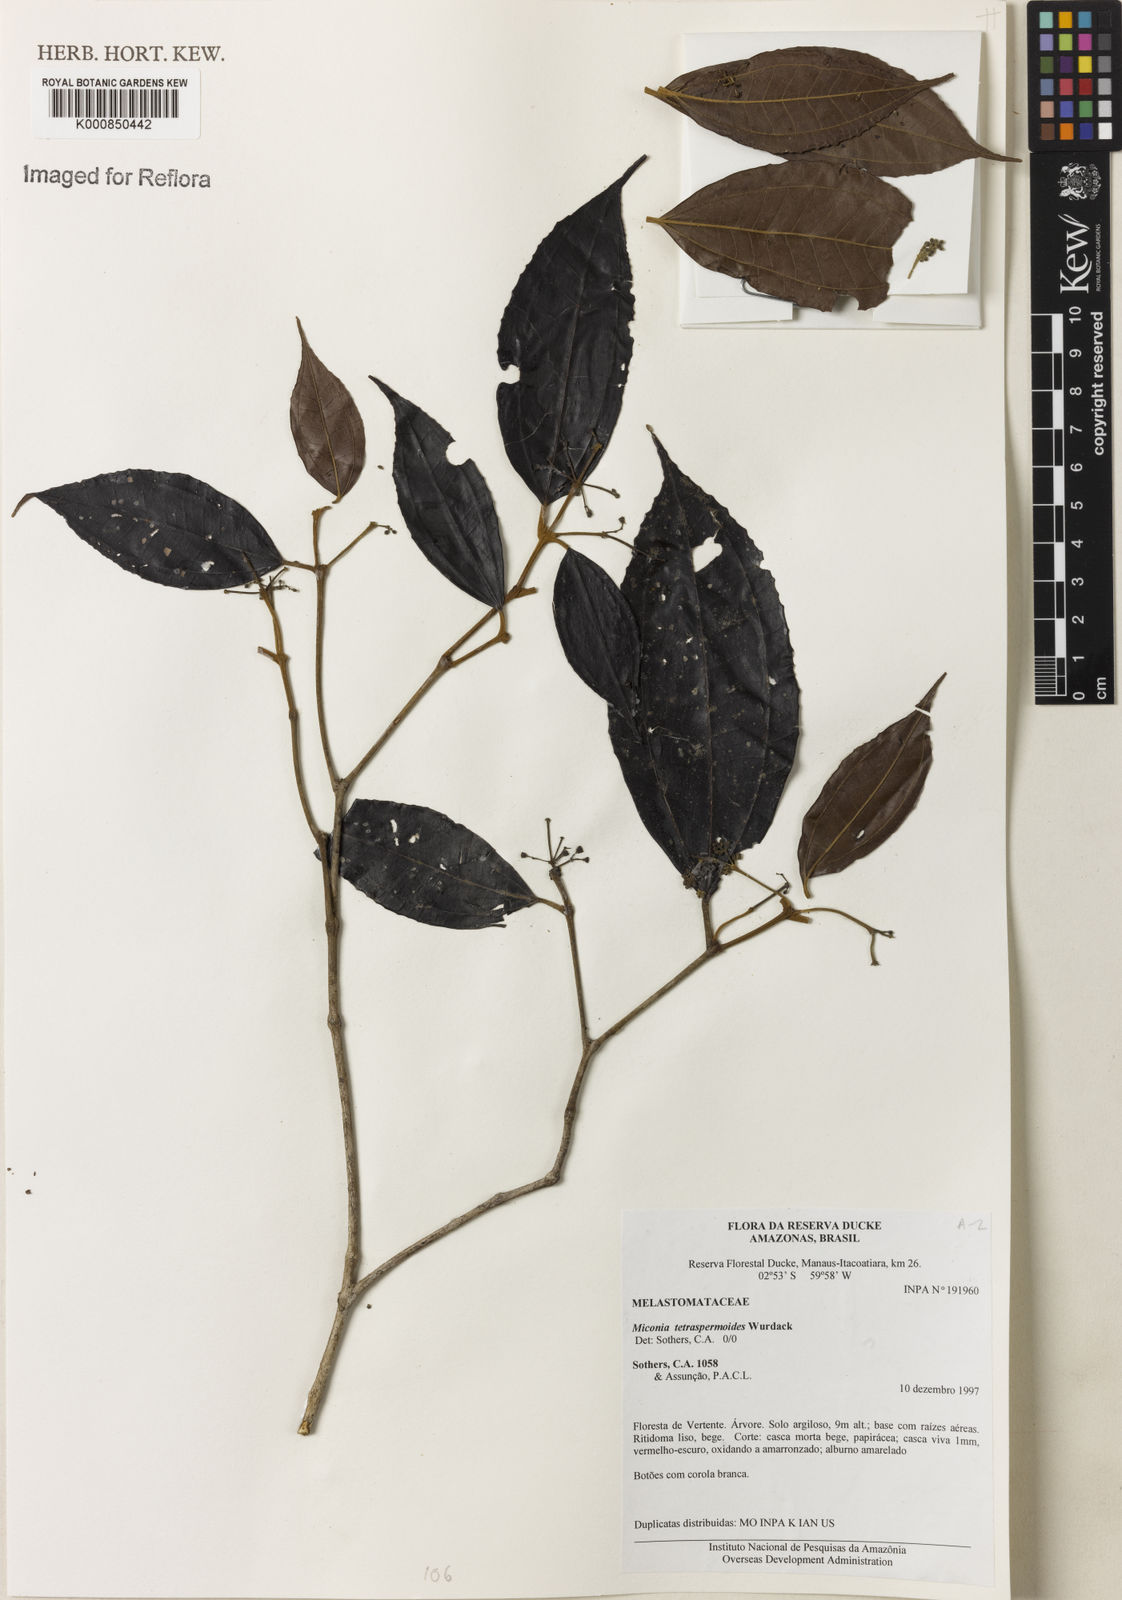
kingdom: Plantae
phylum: Tracheophyta
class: Magnoliopsida
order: Myrtales
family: Melastomataceae
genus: Miconia
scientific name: Miconia tetraspermoides
